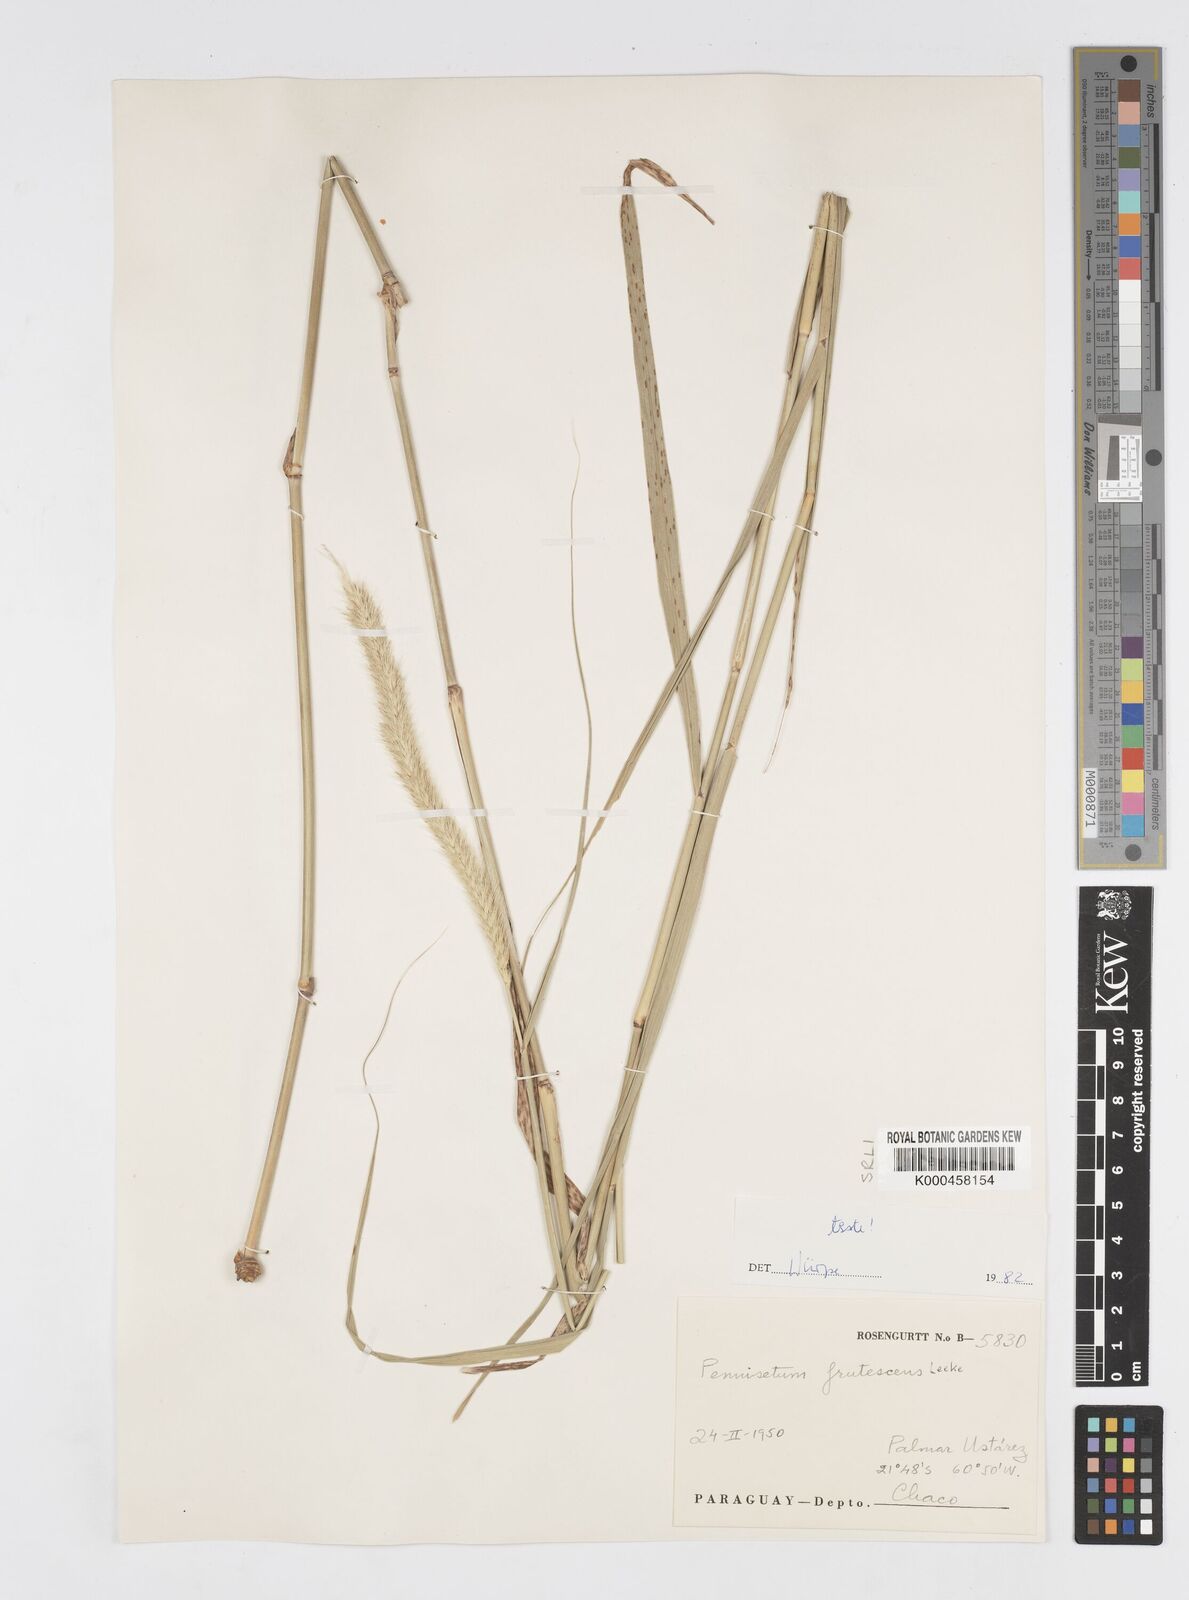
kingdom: Plantae
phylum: Tracheophyta
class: Liliopsida
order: Poales
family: Poaceae
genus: Cenchrus
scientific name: Cenchrus pilcomayensis
